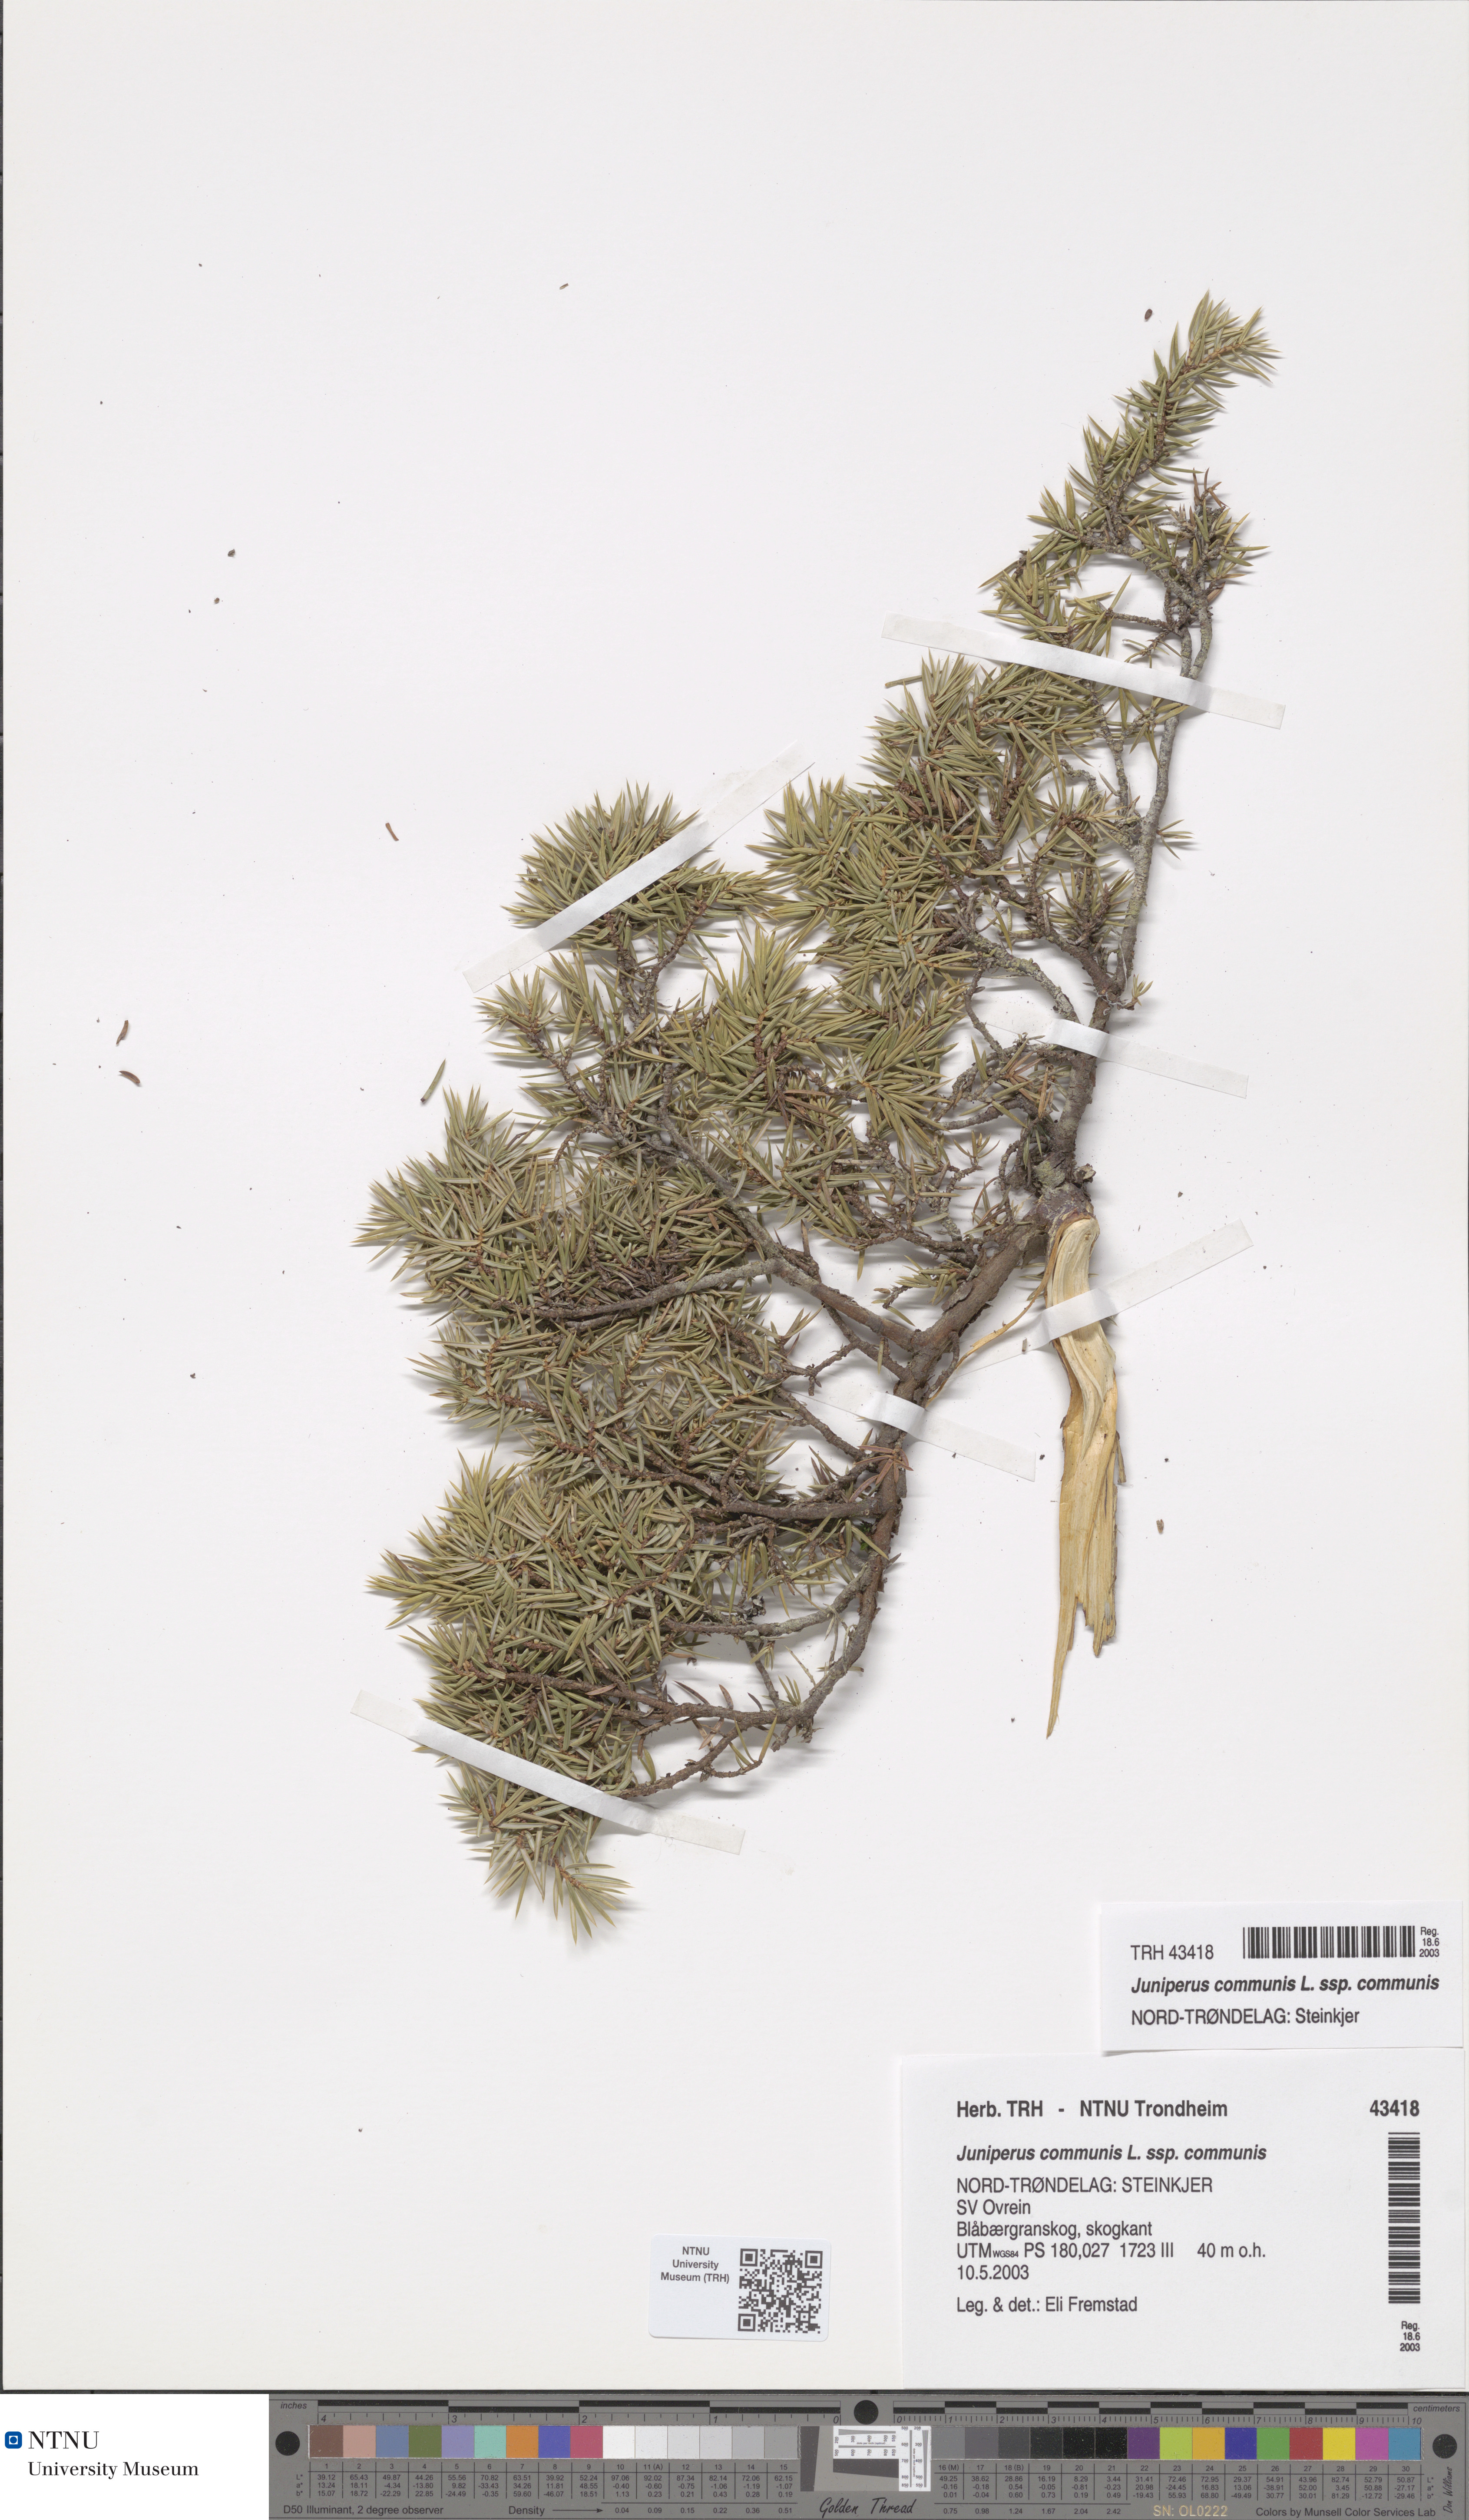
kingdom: Plantae
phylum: Tracheophyta
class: Pinopsida
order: Pinales
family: Cupressaceae
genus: Juniperus
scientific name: Juniperus communis
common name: Common juniper
